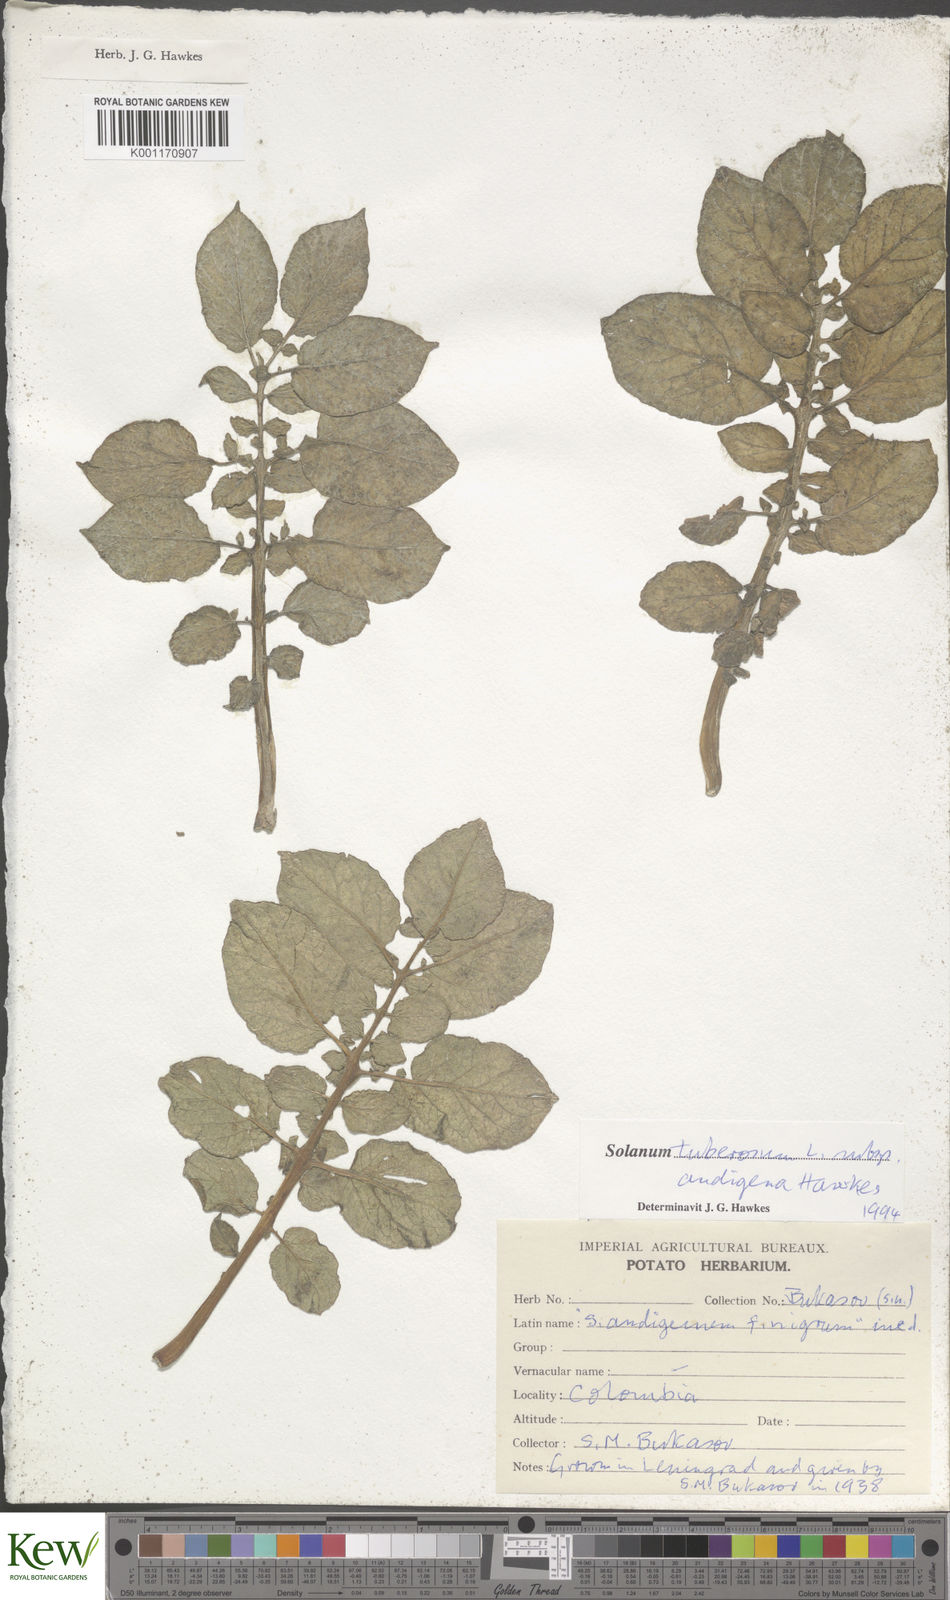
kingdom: Plantae
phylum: Tracheophyta
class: Magnoliopsida
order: Solanales
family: Solanaceae
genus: Solanum
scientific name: Solanum tuberosum
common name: Potato
